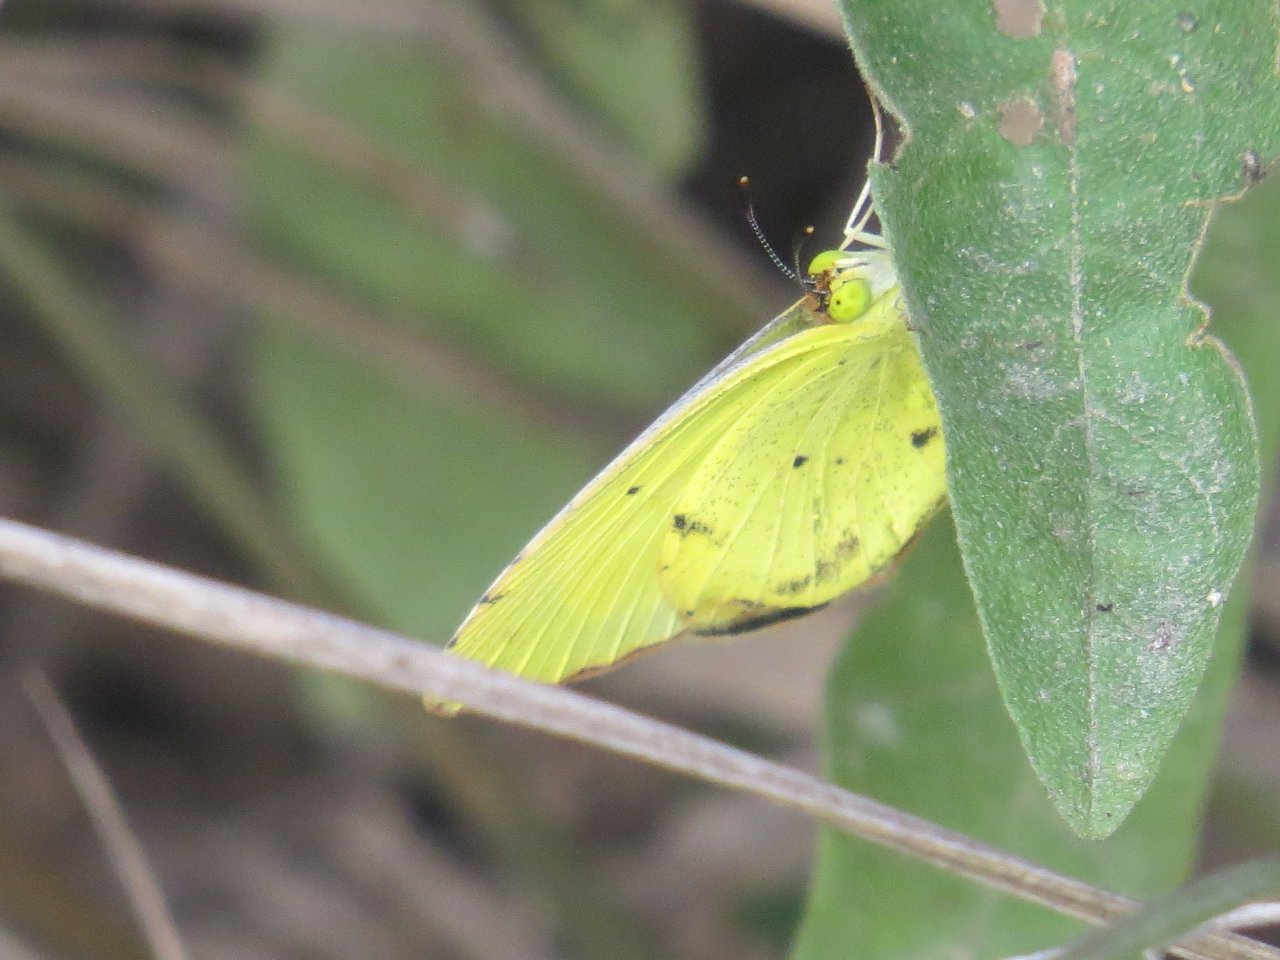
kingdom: Animalia
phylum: Arthropoda
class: Insecta
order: Lepidoptera
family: Pieridae
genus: Pyrisitia
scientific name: Pyrisitia lisa
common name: Little Yellow
